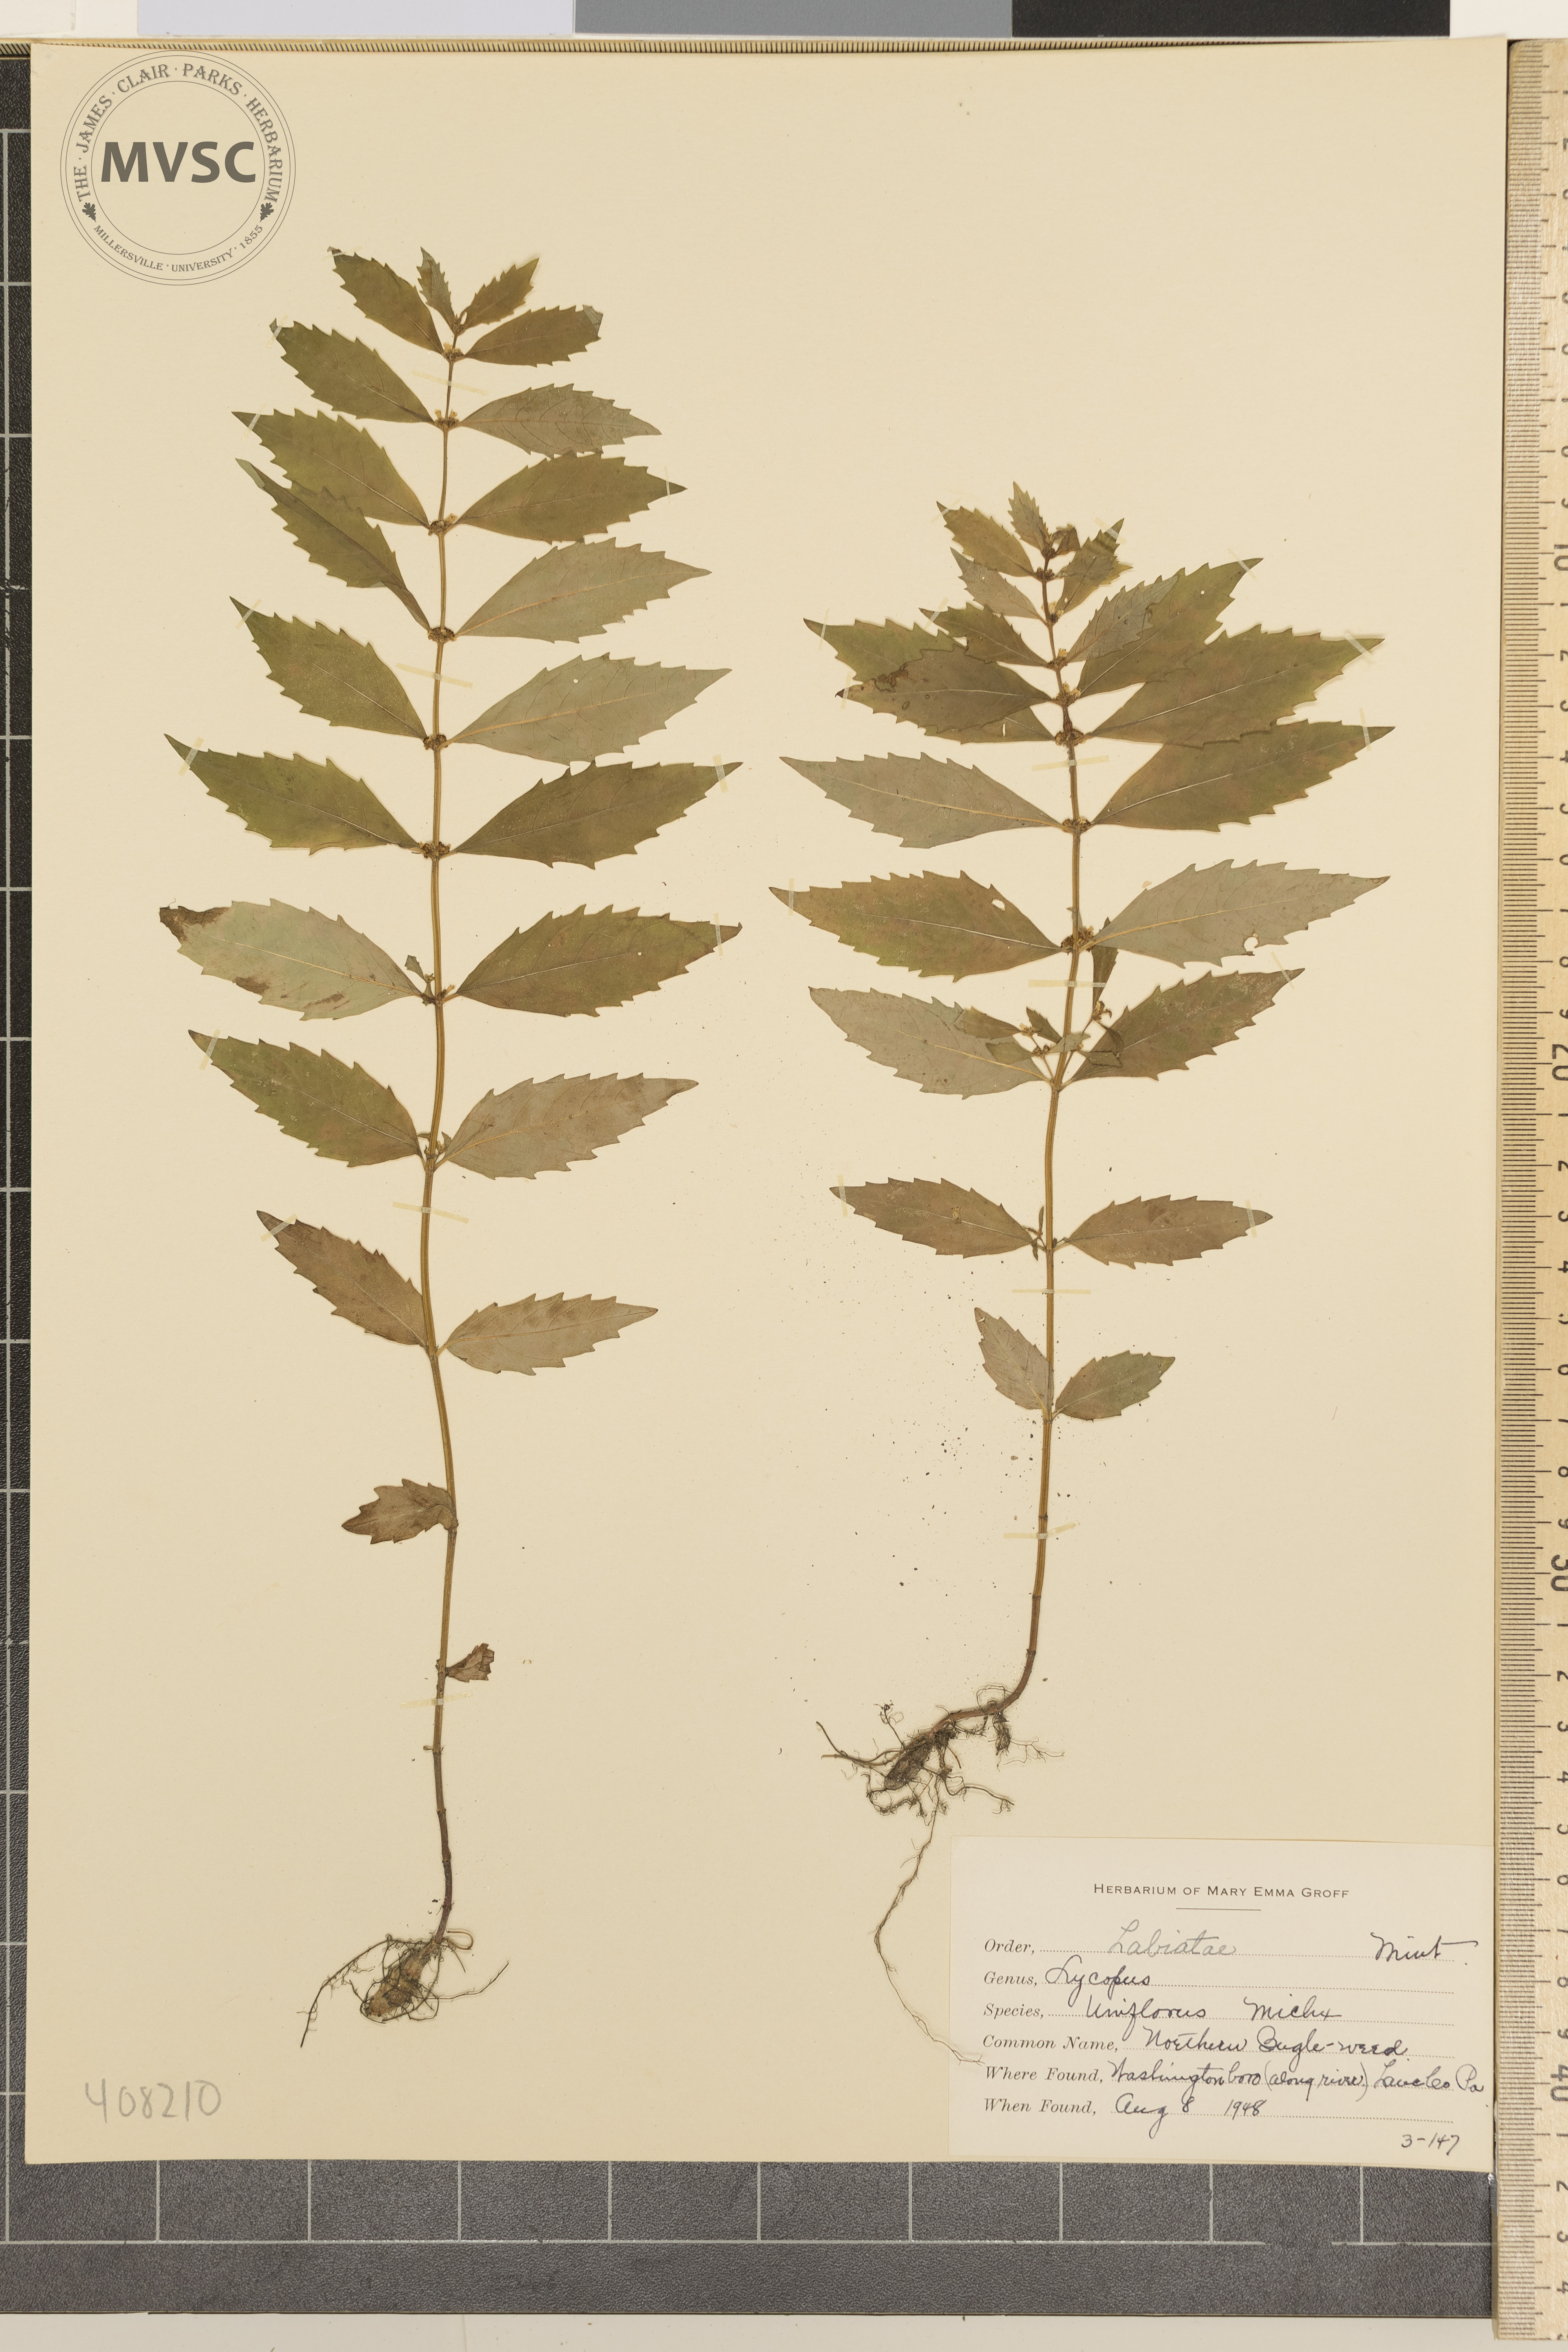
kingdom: Plantae
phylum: Tracheophyta
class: Magnoliopsida
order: Lamiales
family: Lamiaceae
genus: Lycopus
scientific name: Lycopus uniflorus
